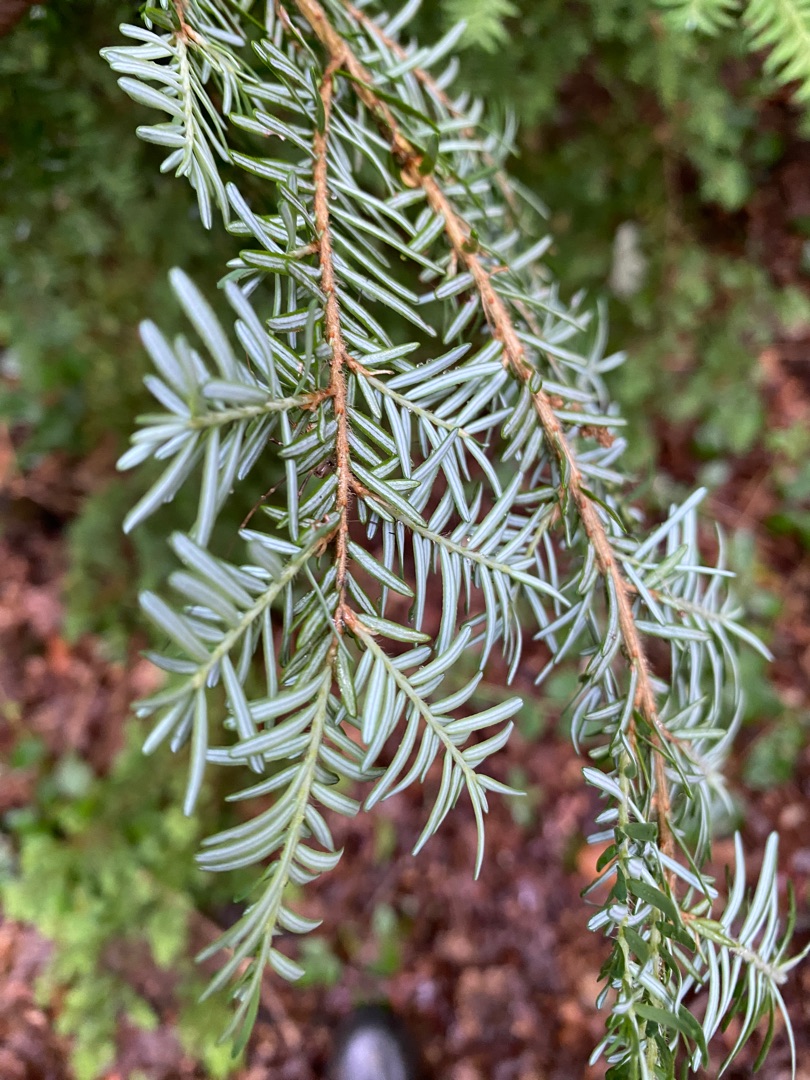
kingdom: Plantae
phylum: Tracheophyta
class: Pinopsida
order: Pinales
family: Pinaceae
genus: Tsuga
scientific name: Tsuga heterophylla
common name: Skarntydegran
